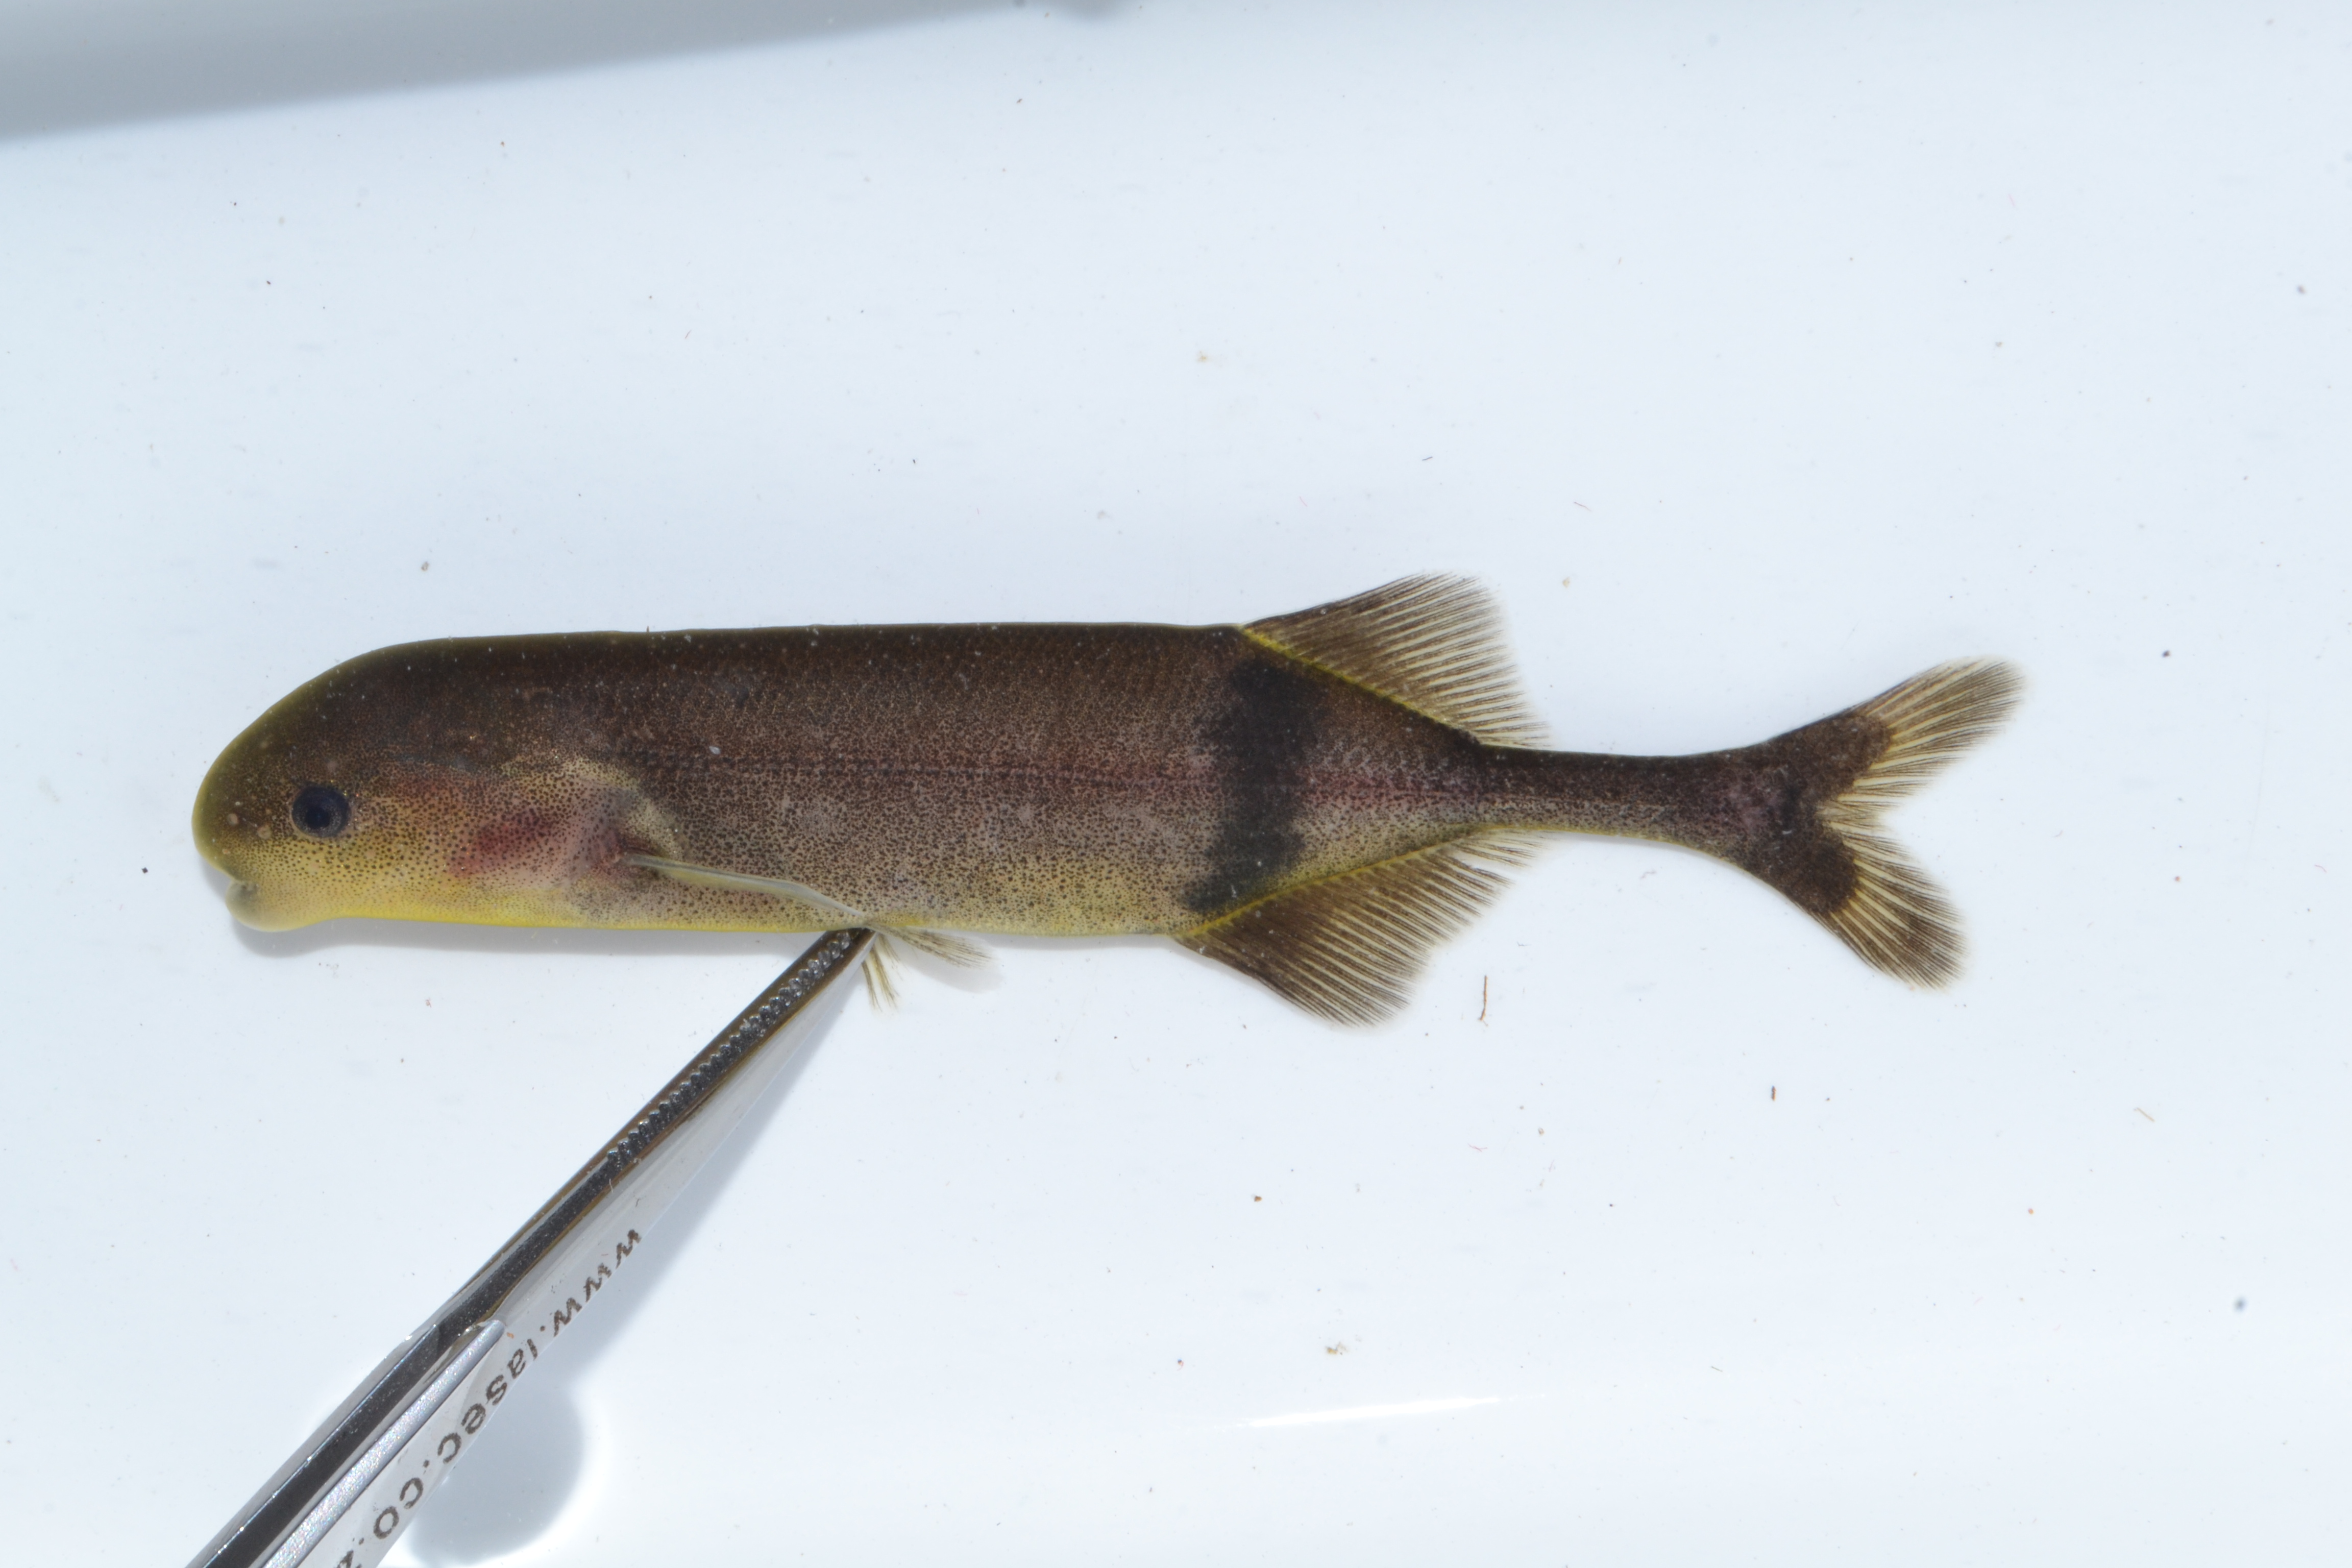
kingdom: Animalia
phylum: Chordata
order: Osteoglossiformes
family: Mormyridae
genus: Hippopotamyrus
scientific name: Hippopotamyrus szaboi
